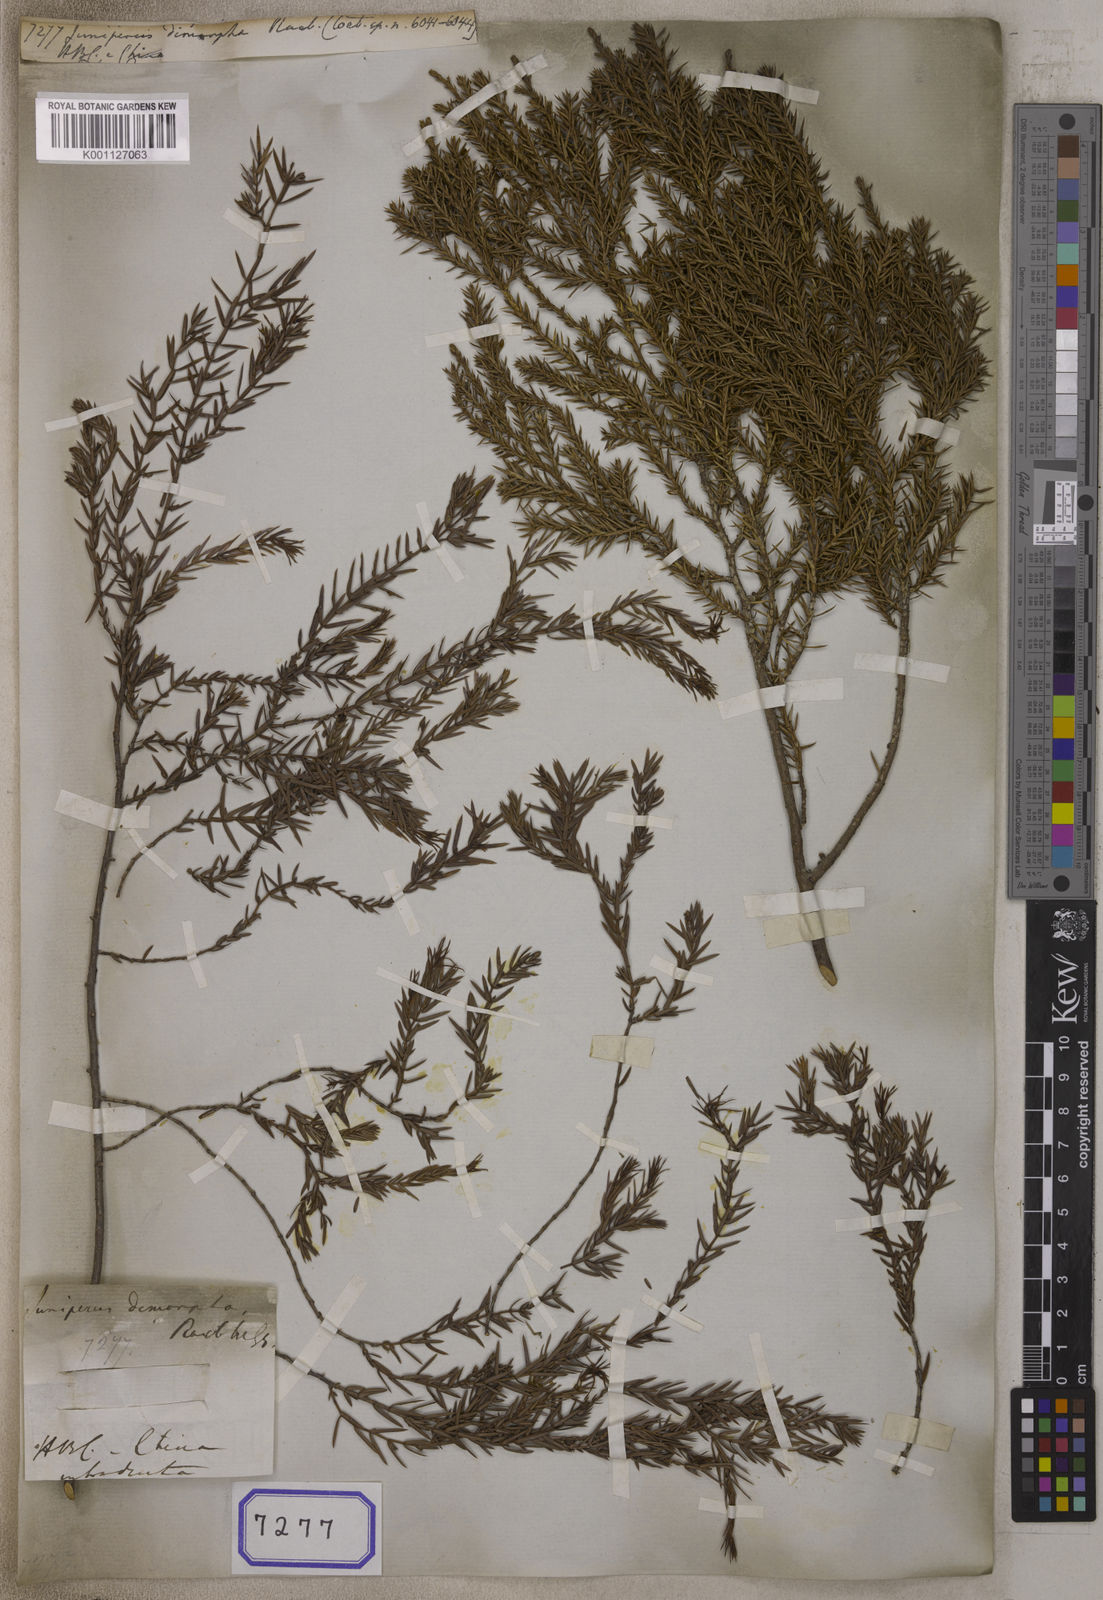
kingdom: Plantae
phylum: Tracheophyta
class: Pinopsida
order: Pinales
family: Cupressaceae
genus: Juniperus
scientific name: Juniperus chinensis
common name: Chinese juniper
